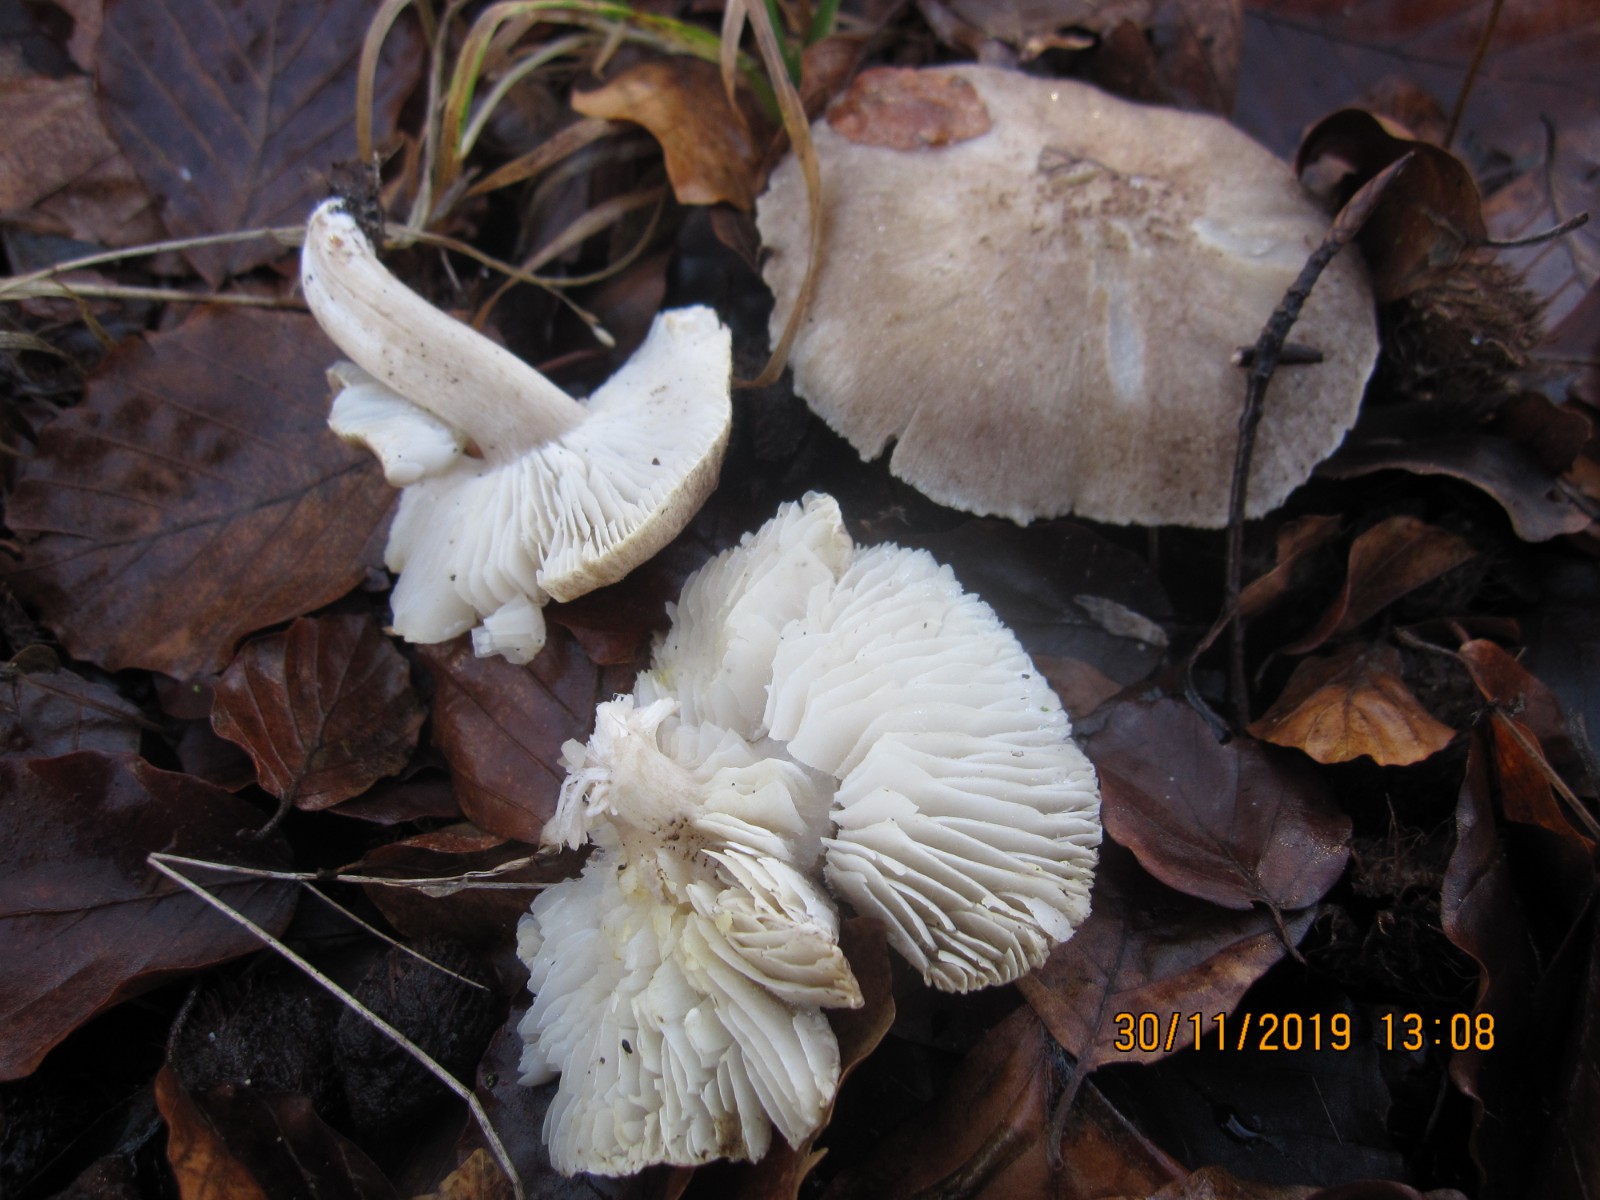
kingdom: Fungi
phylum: Basidiomycota
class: Agaricomycetes
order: Agaricales
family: Tricholomataceae
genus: Tricholoma
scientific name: Tricholoma scalpturatum
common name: gulplettet ridderhat
